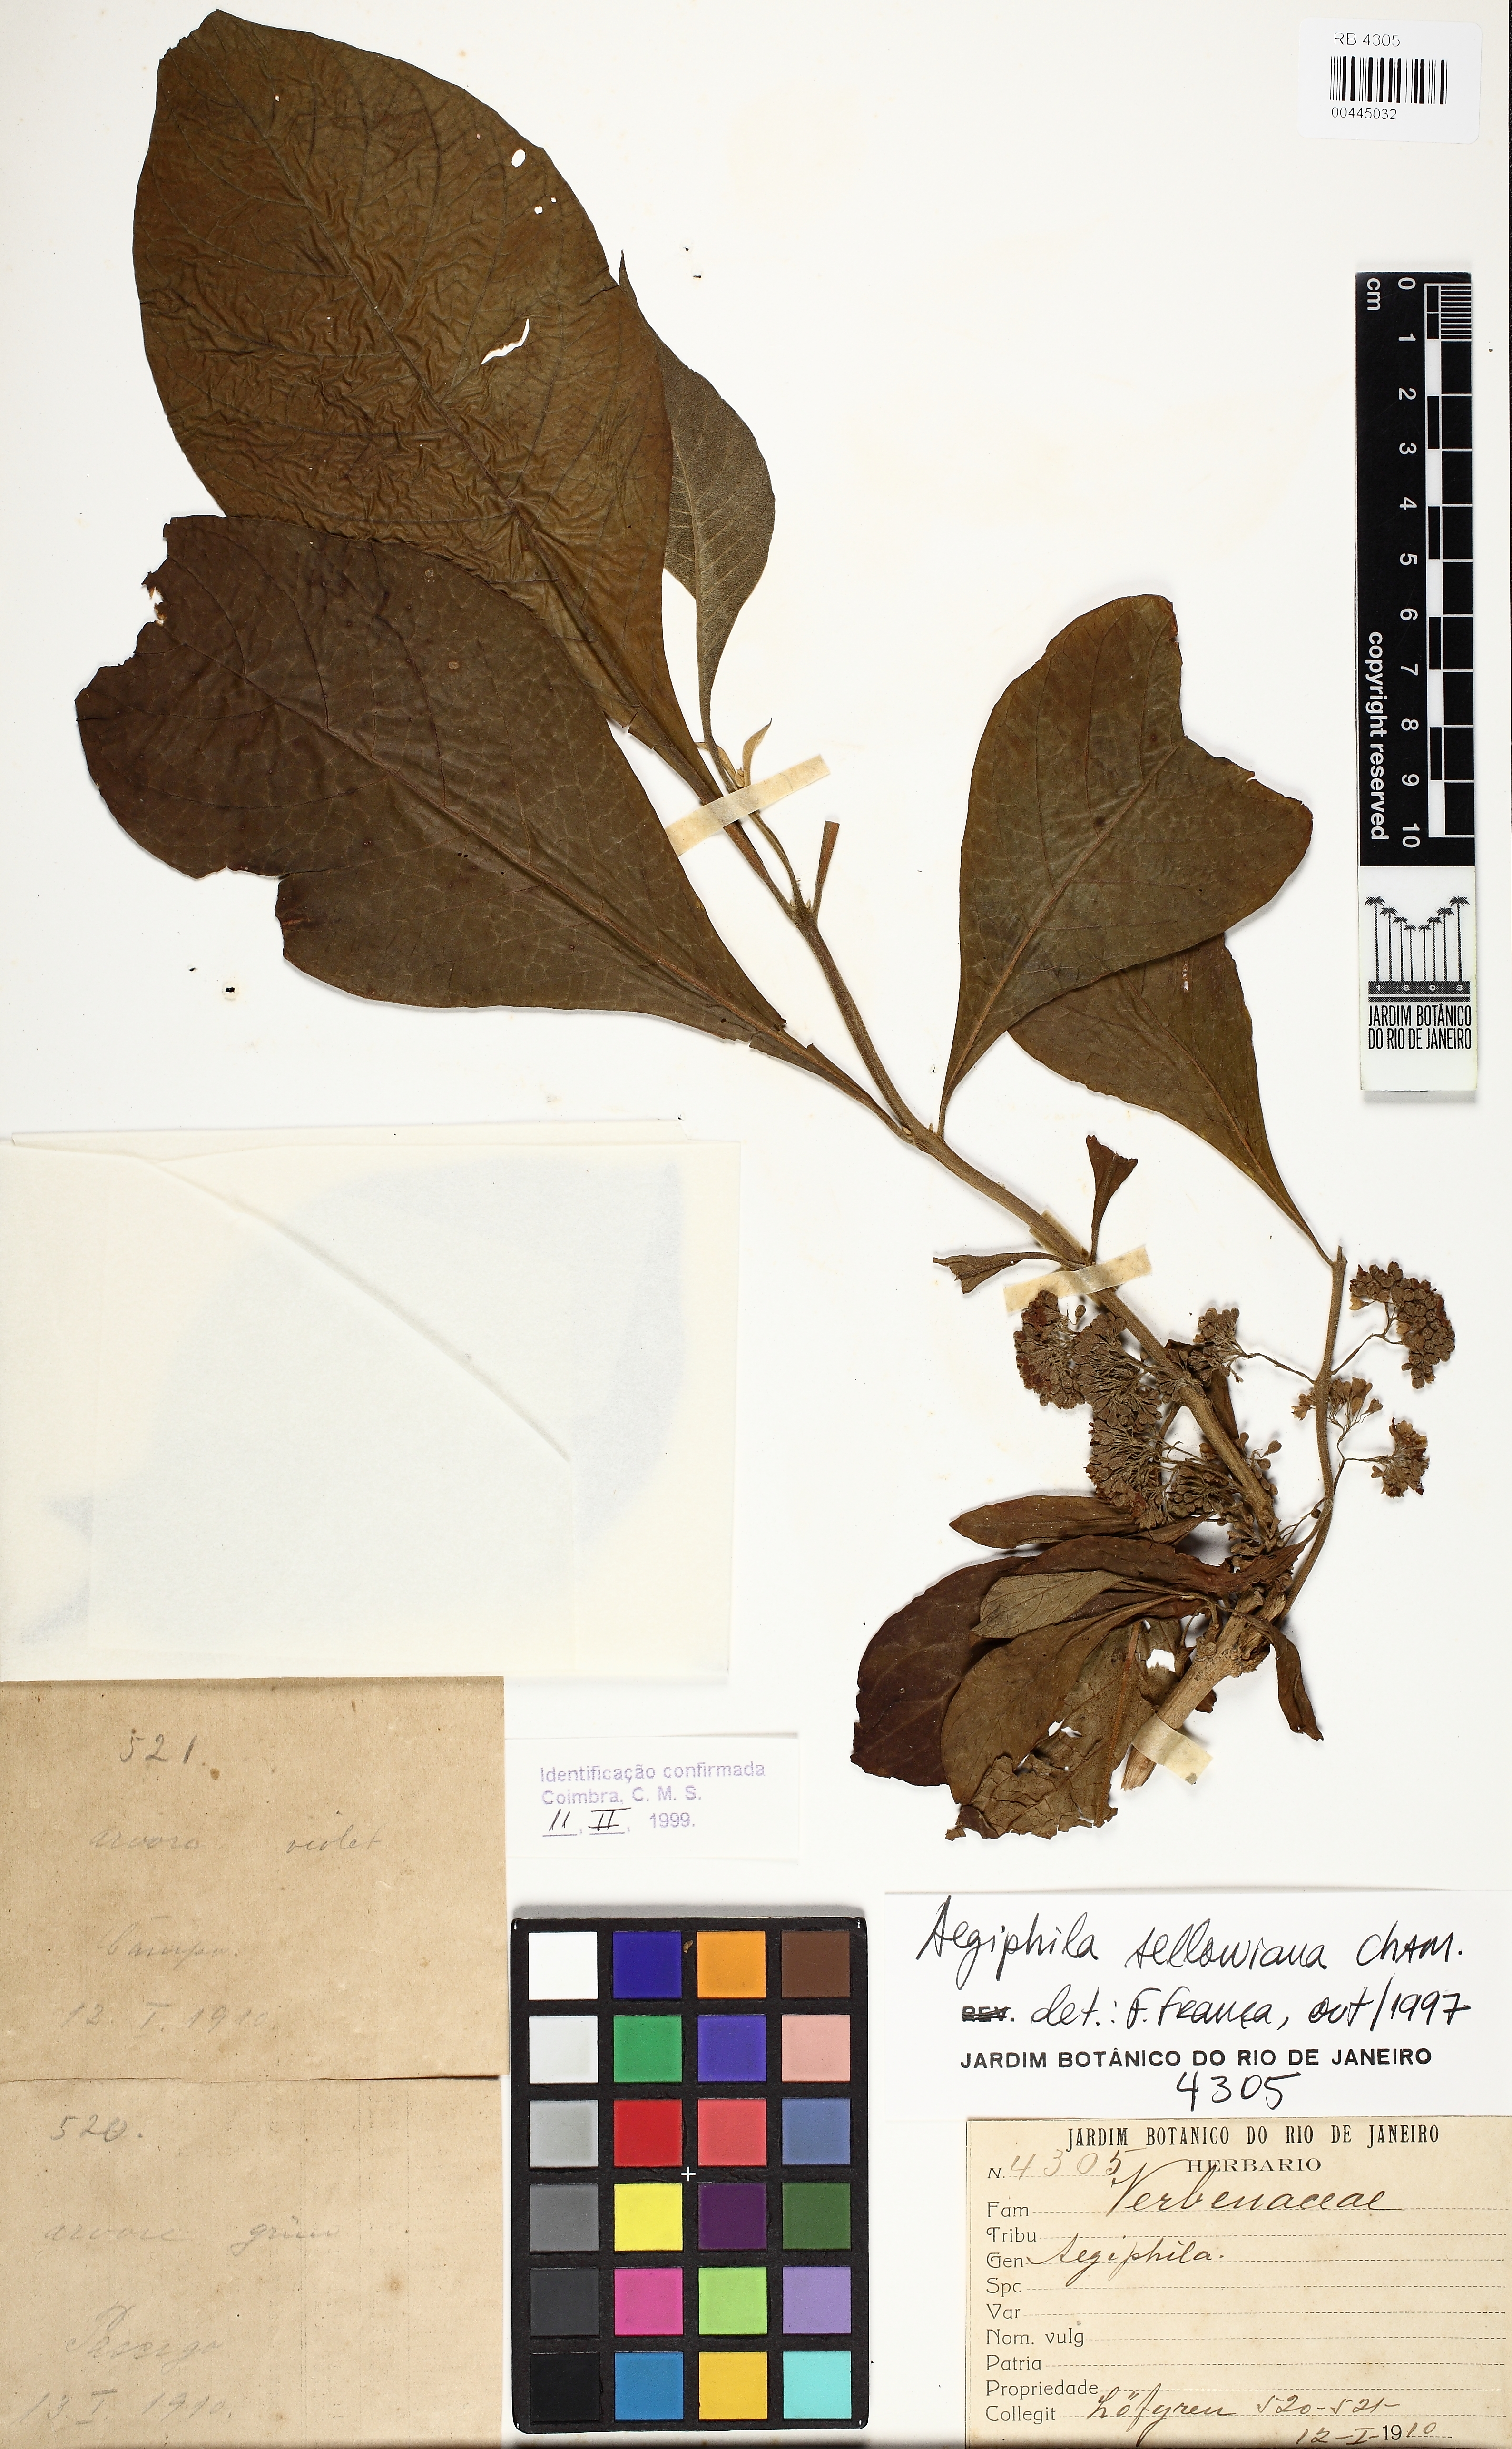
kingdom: Plantae
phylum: Tracheophyta
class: Magnoliopsida
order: Lamiales
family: Lamiaceae
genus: Aegiphila
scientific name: Aegiphila verticillata
